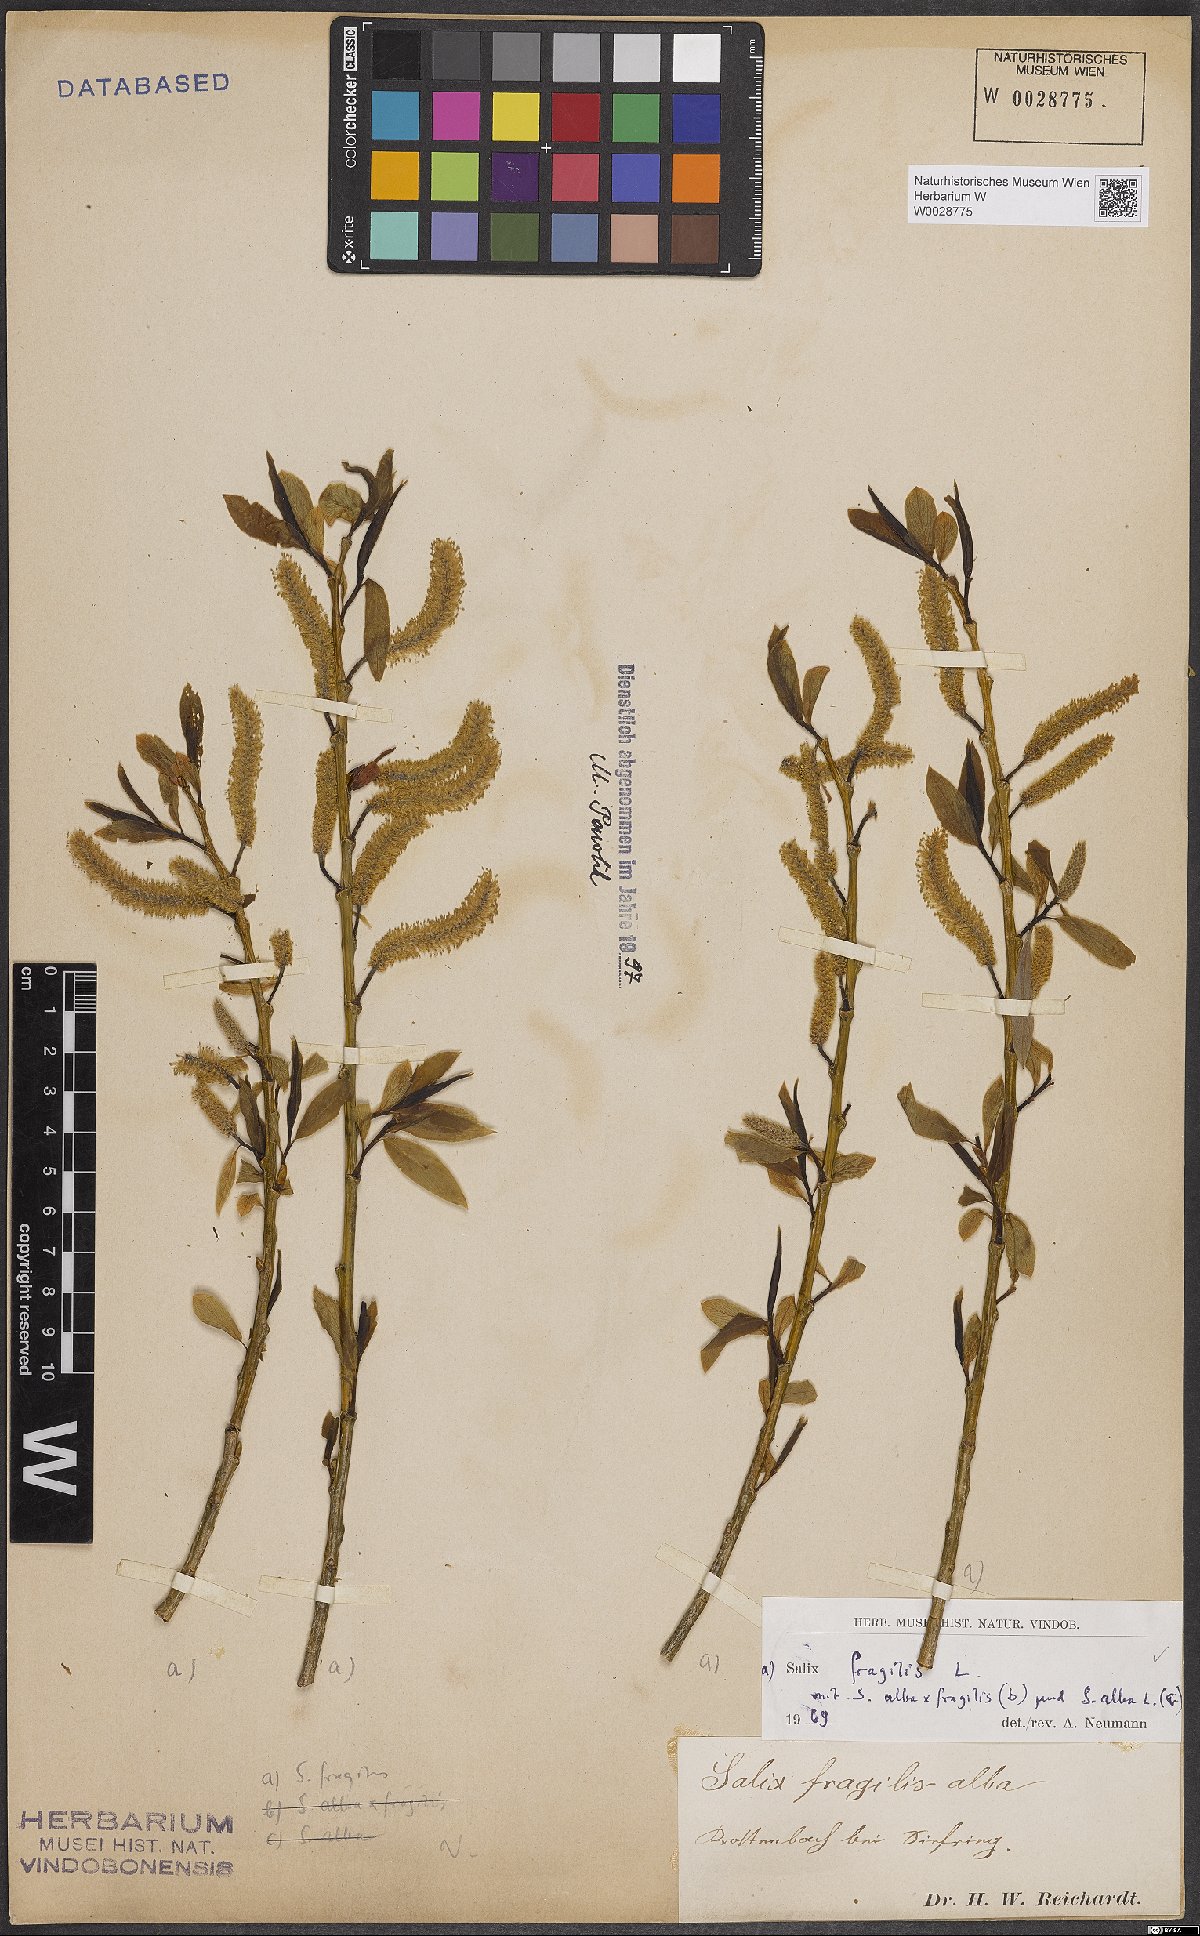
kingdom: Plantae
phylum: Tracheophyta
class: Magnoliopsida
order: Malpighiales
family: Salicaceae
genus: Salix
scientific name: Salix fragilis
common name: Crack willow
